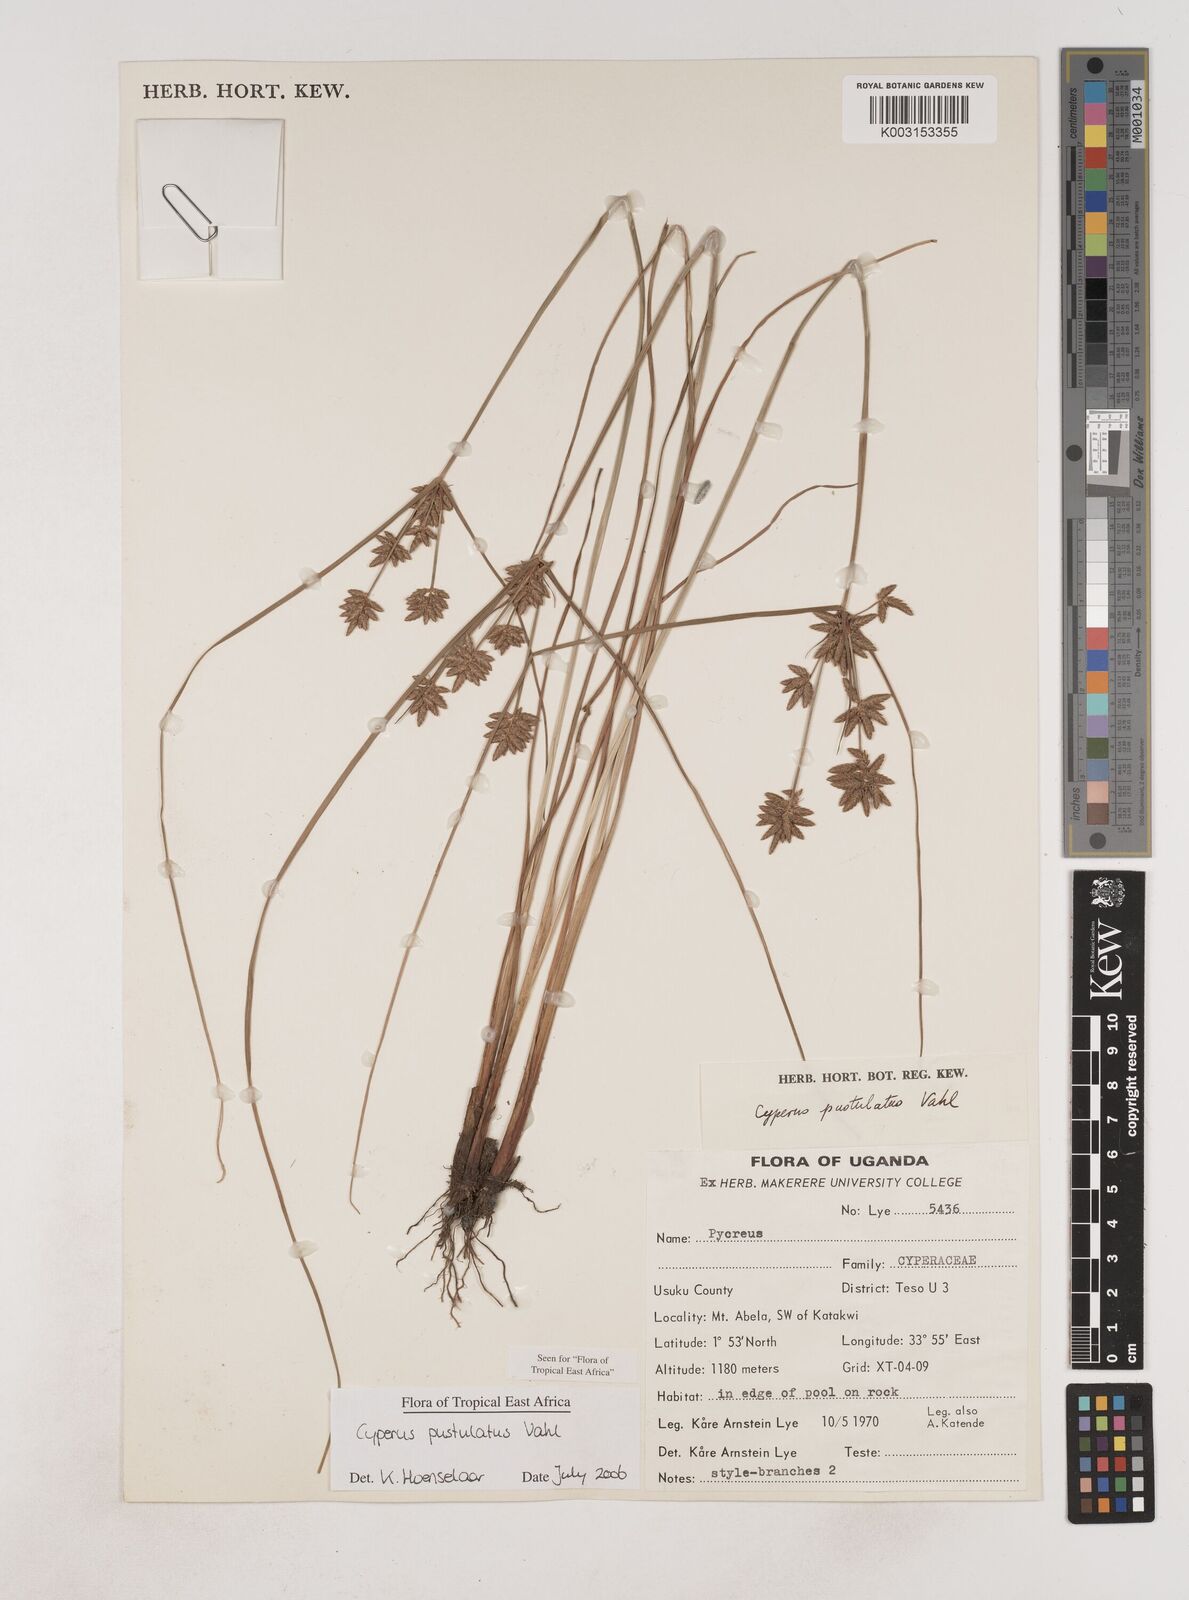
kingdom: Plantae
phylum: Tracheophyta
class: Liliopsida
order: Poales
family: Cyperaceae
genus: Cyperus
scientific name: Cyperus pustulatus
